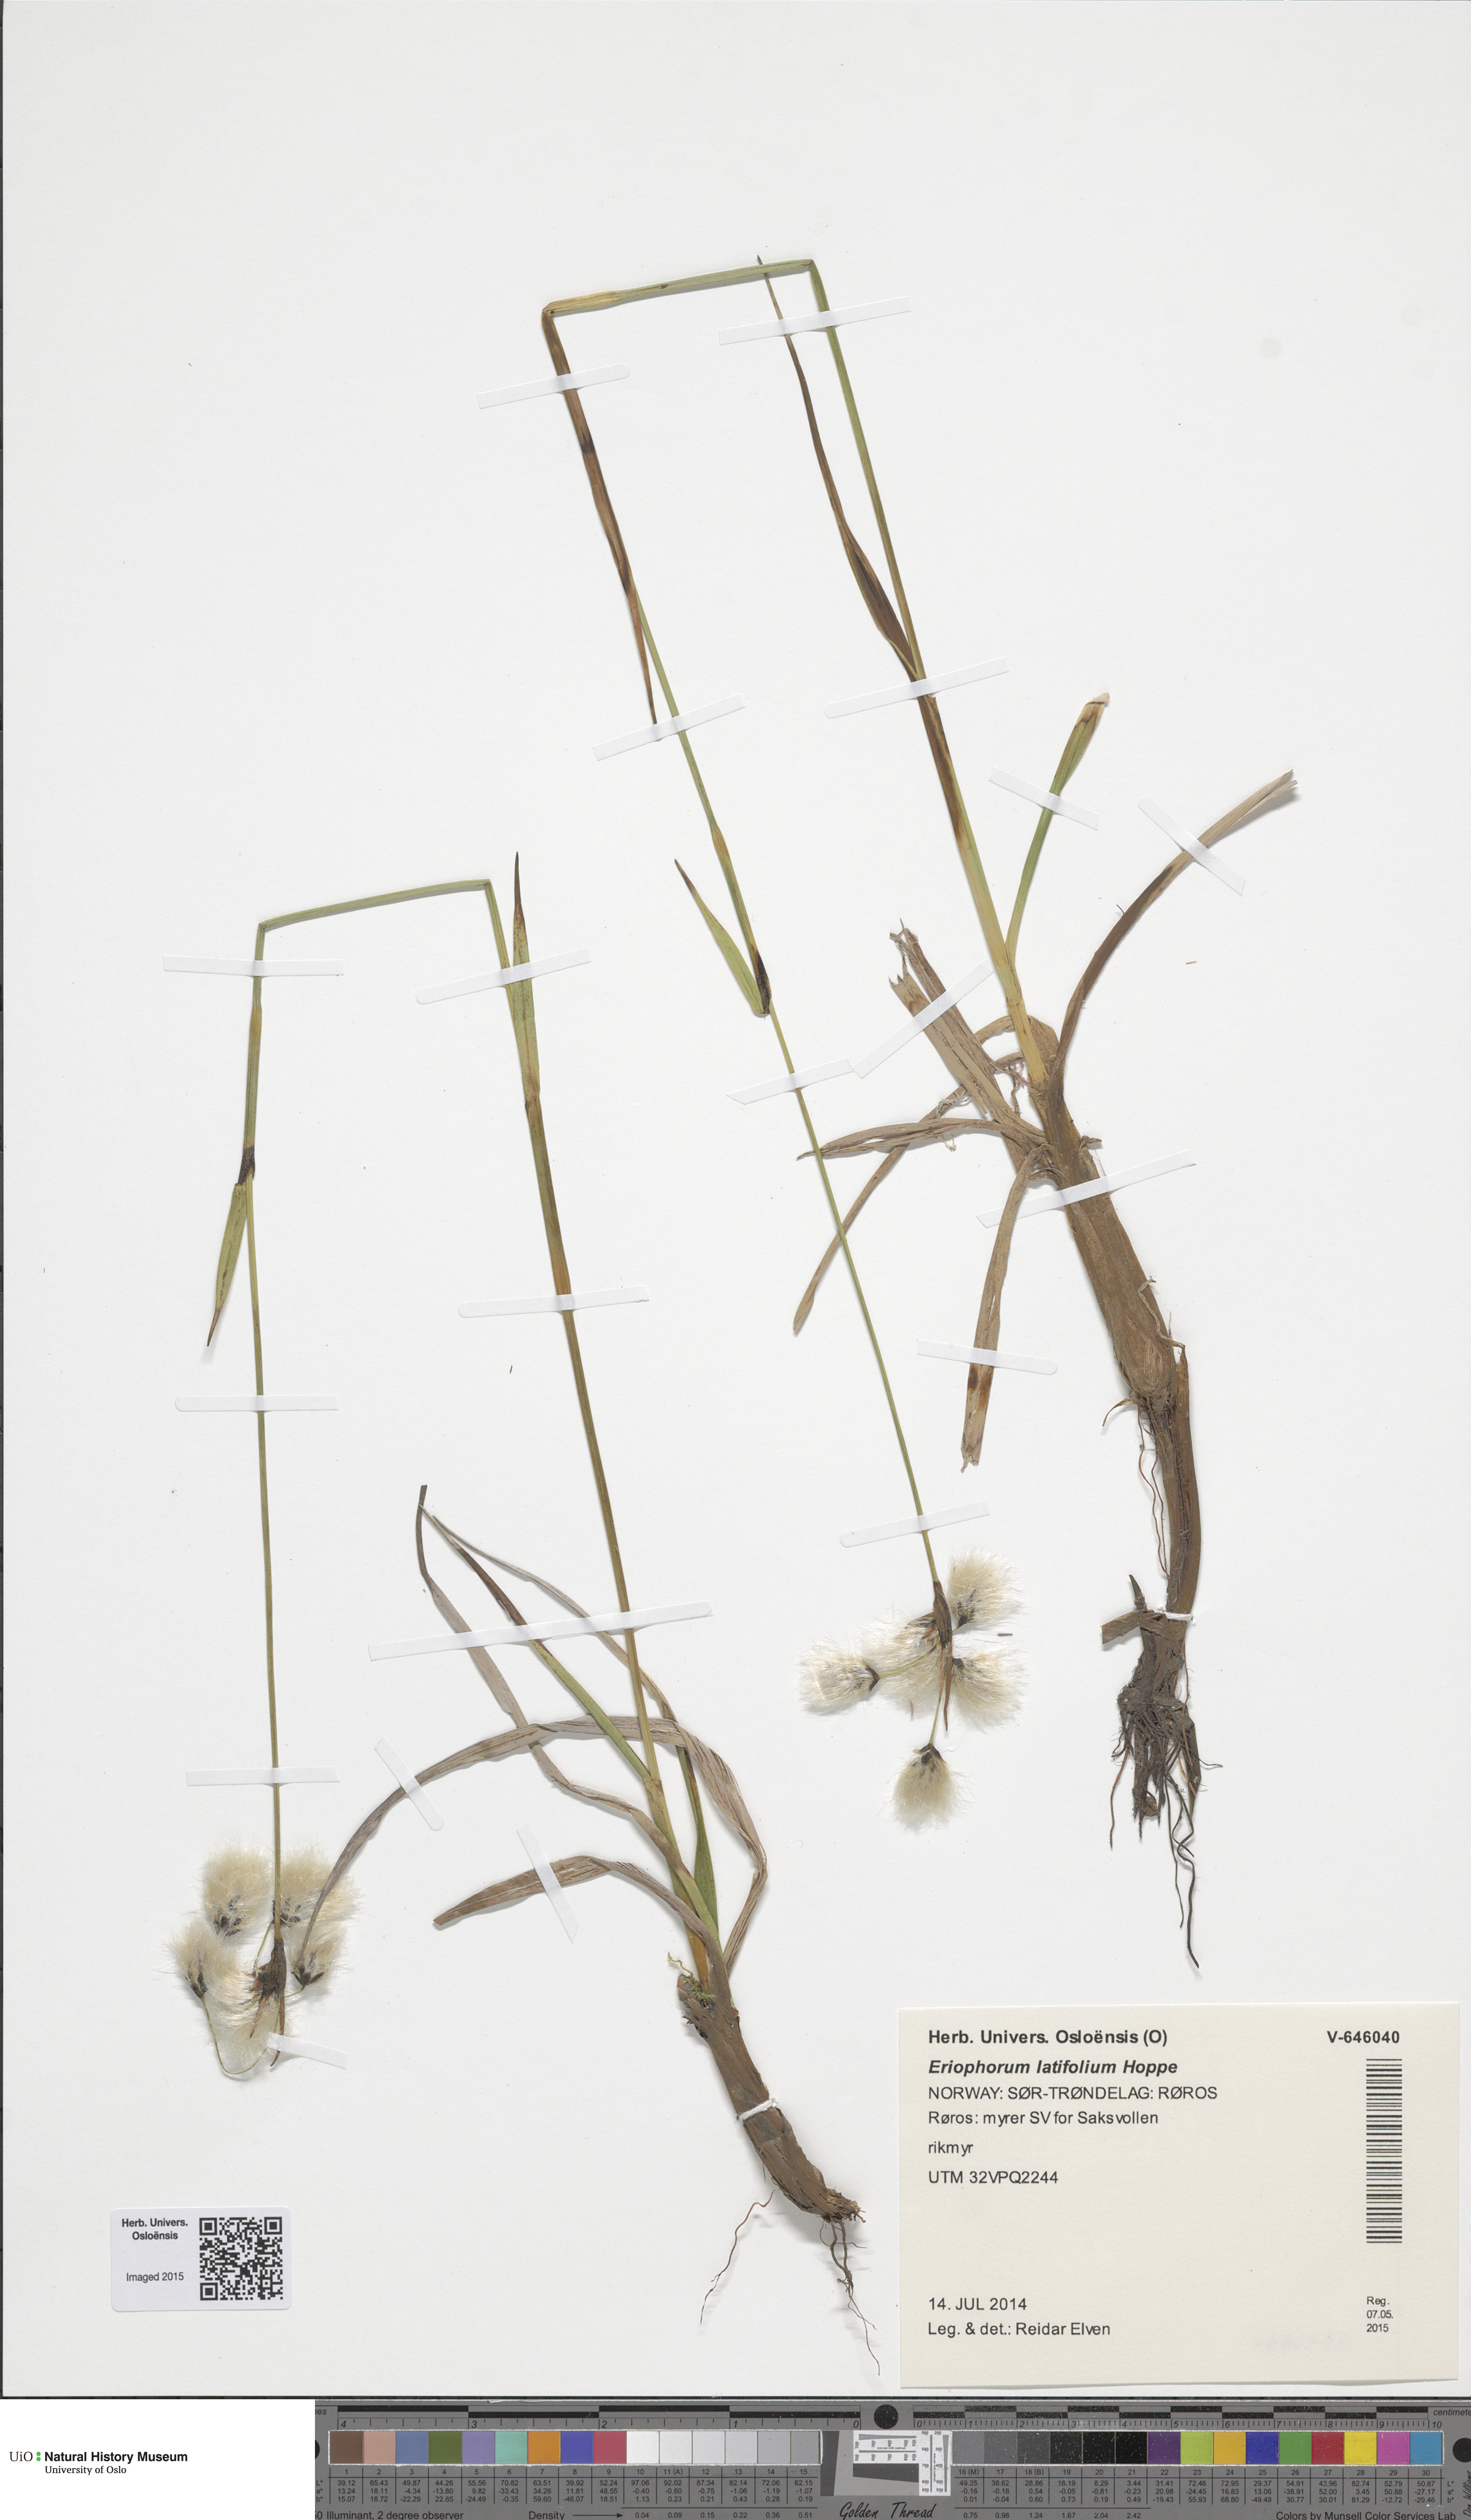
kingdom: Plantae
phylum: Tracheophyta
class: Liliopsida
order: Poales
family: Cyperaceae
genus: Eriophorum
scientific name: Eriophorum latifolium
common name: Broad-leaved cottongrass
